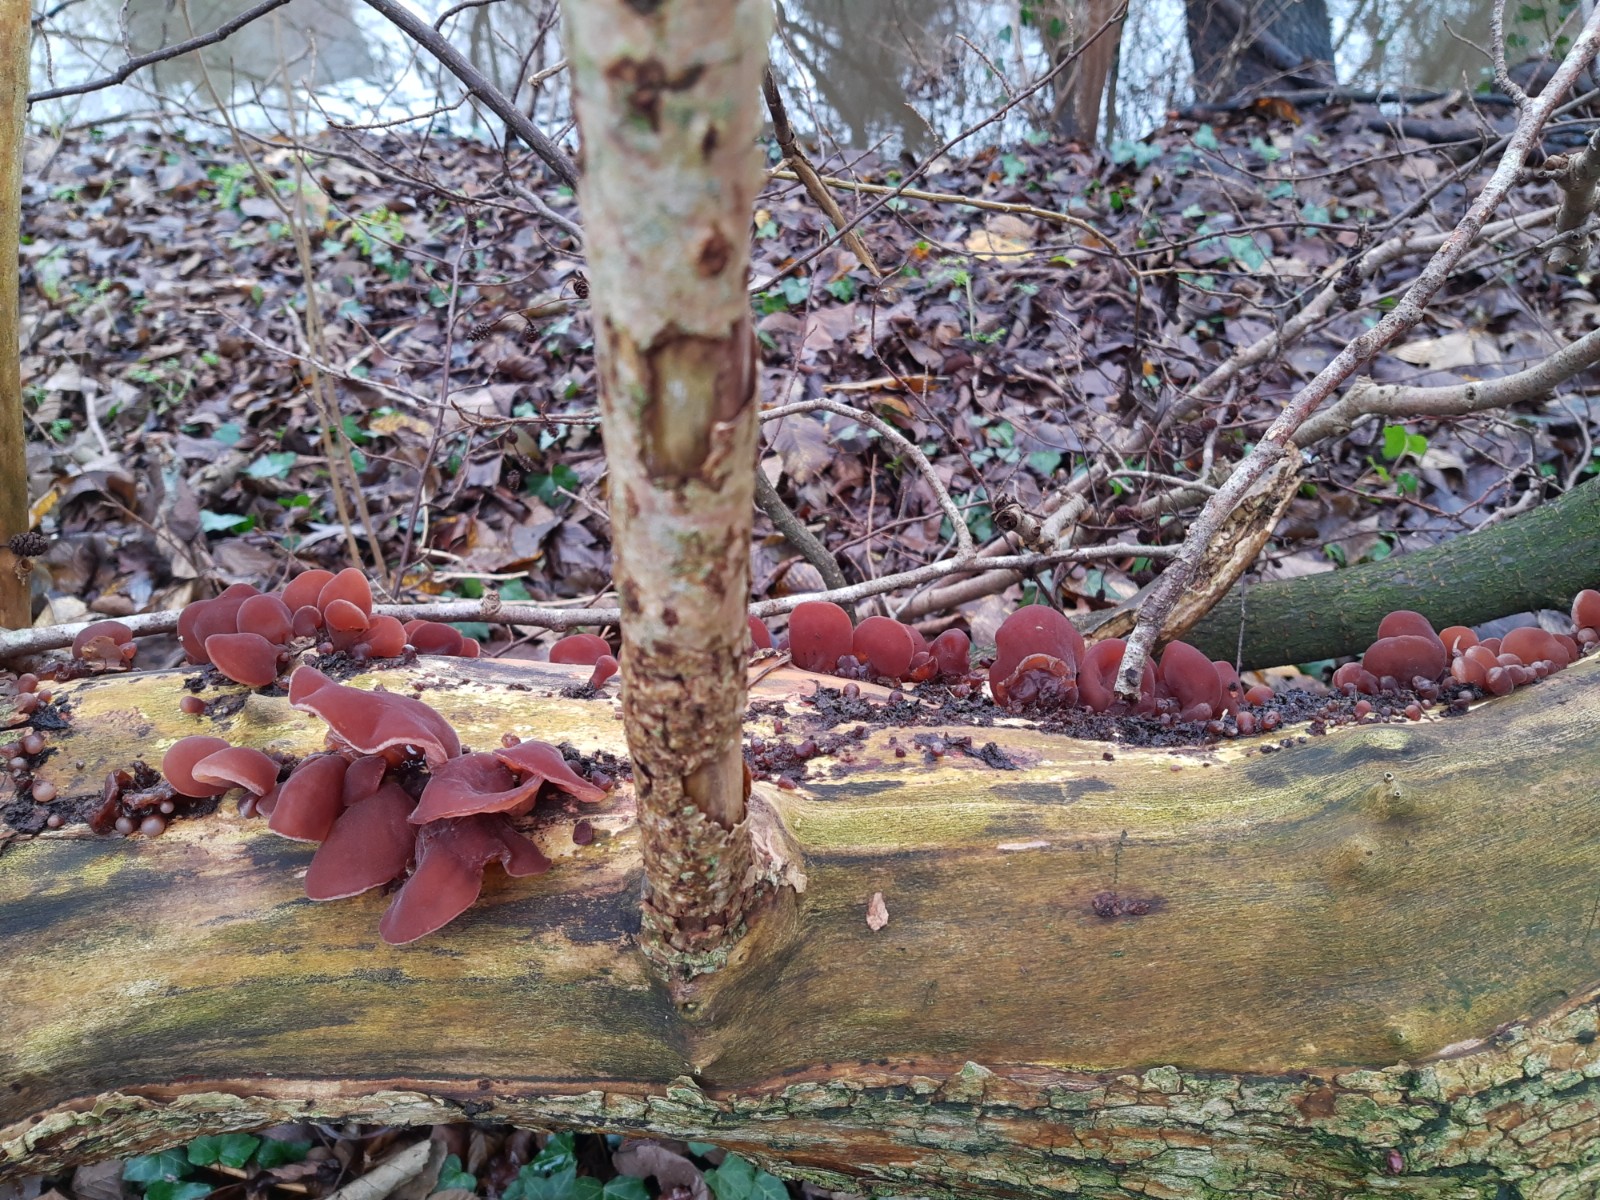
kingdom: Fungi
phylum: Basidiomycota
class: Agaricomycetes
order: Auriculariales
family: Auriculariaceae
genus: Auricularia
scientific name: Auricularia auricula-judae
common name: almindelig judasøre
